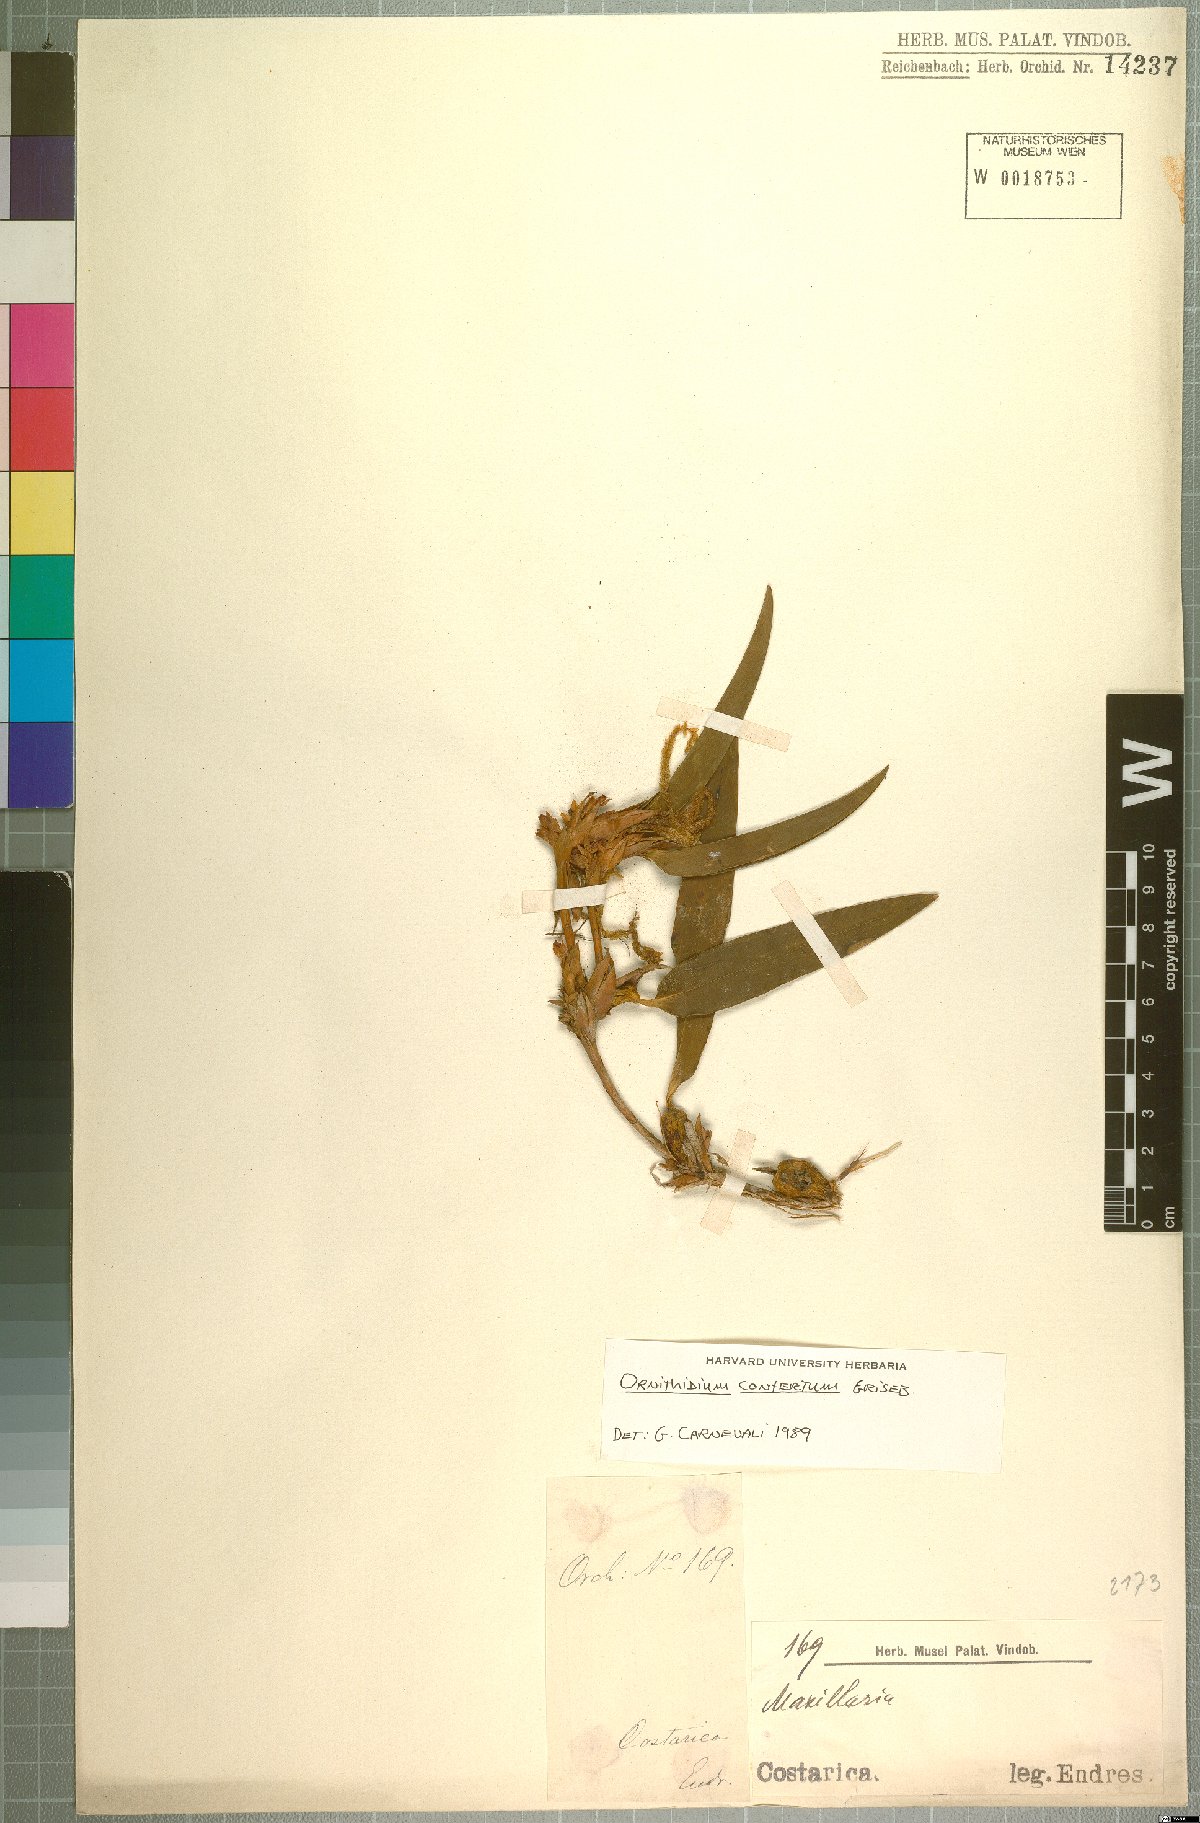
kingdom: Plantae
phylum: Tracheophyta
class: Liliopsida
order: Asparagales
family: Orchidaceae
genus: Maxillaria
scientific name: Maxillaria parviflora
